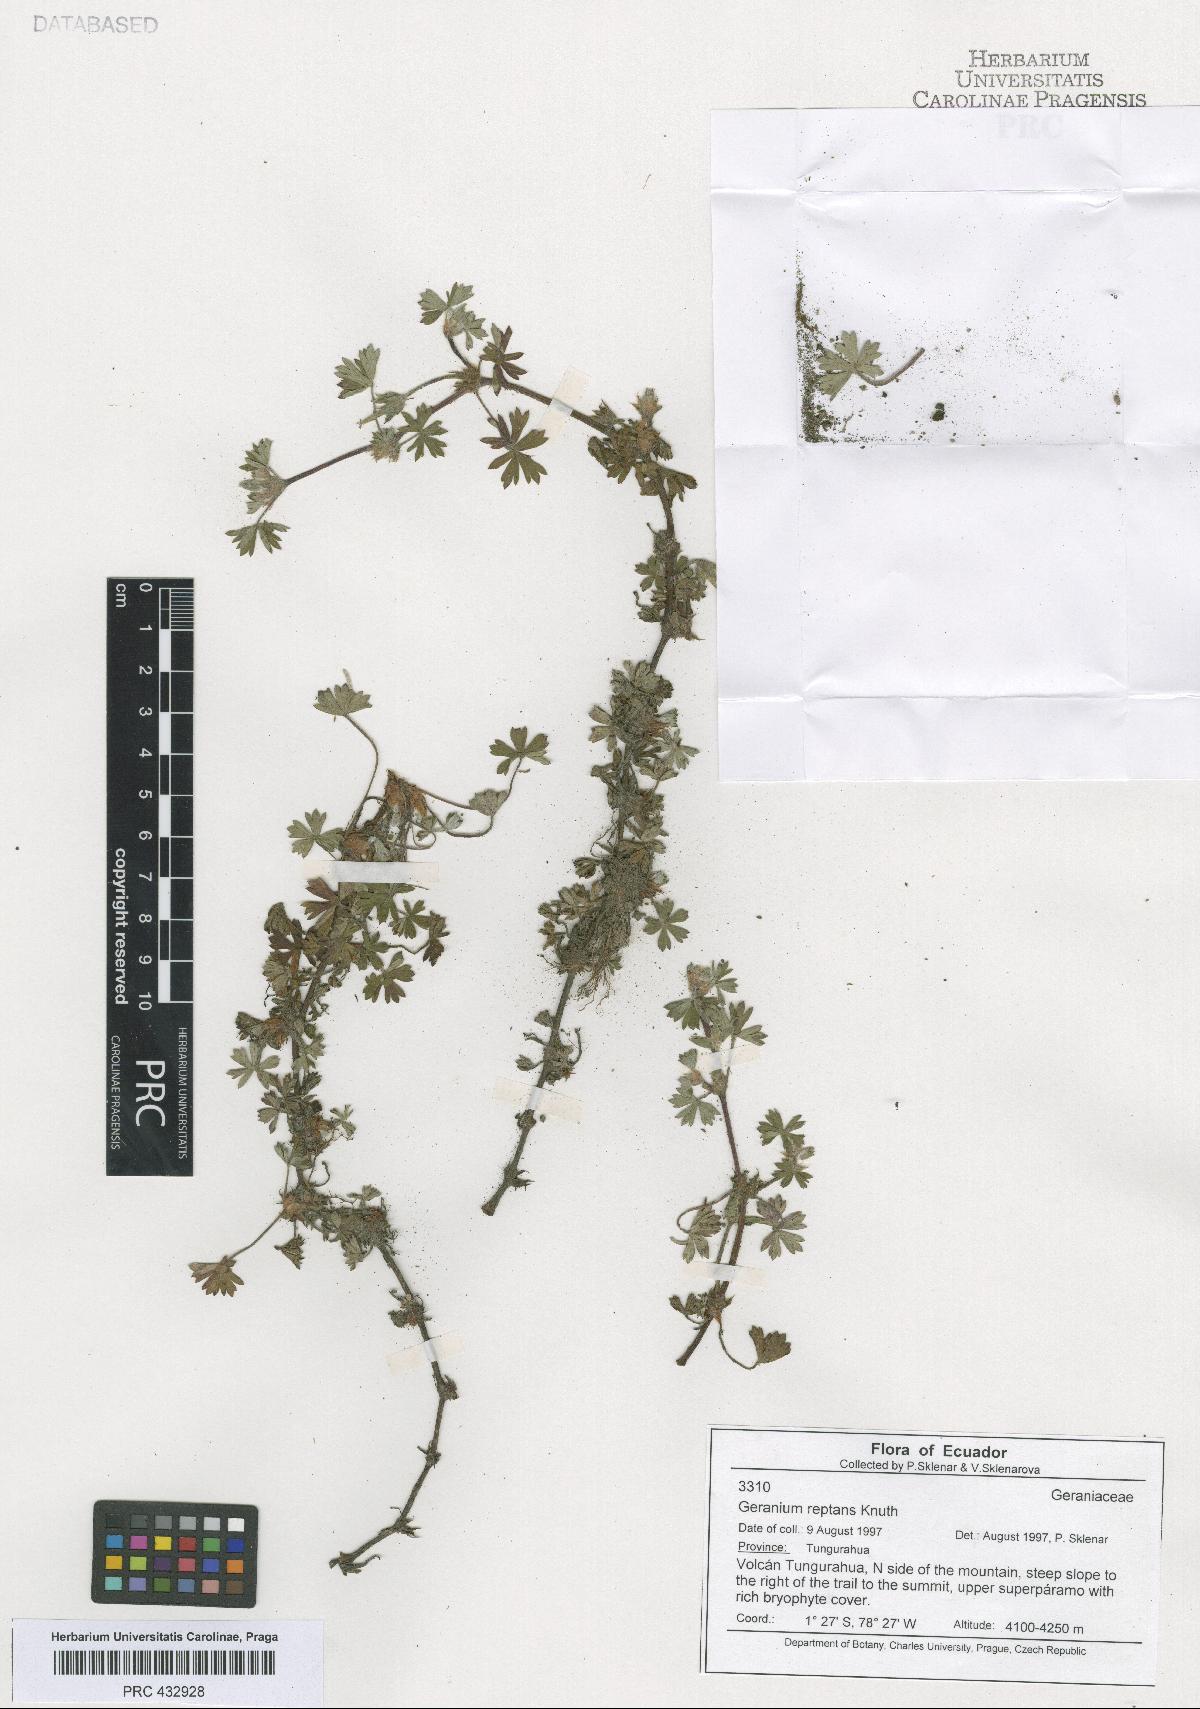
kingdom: Plantae
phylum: Tracheophyta
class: Magnoliopsida
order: Geraniales
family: Geraniaceae
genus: Geranium
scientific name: Geranium reptans
